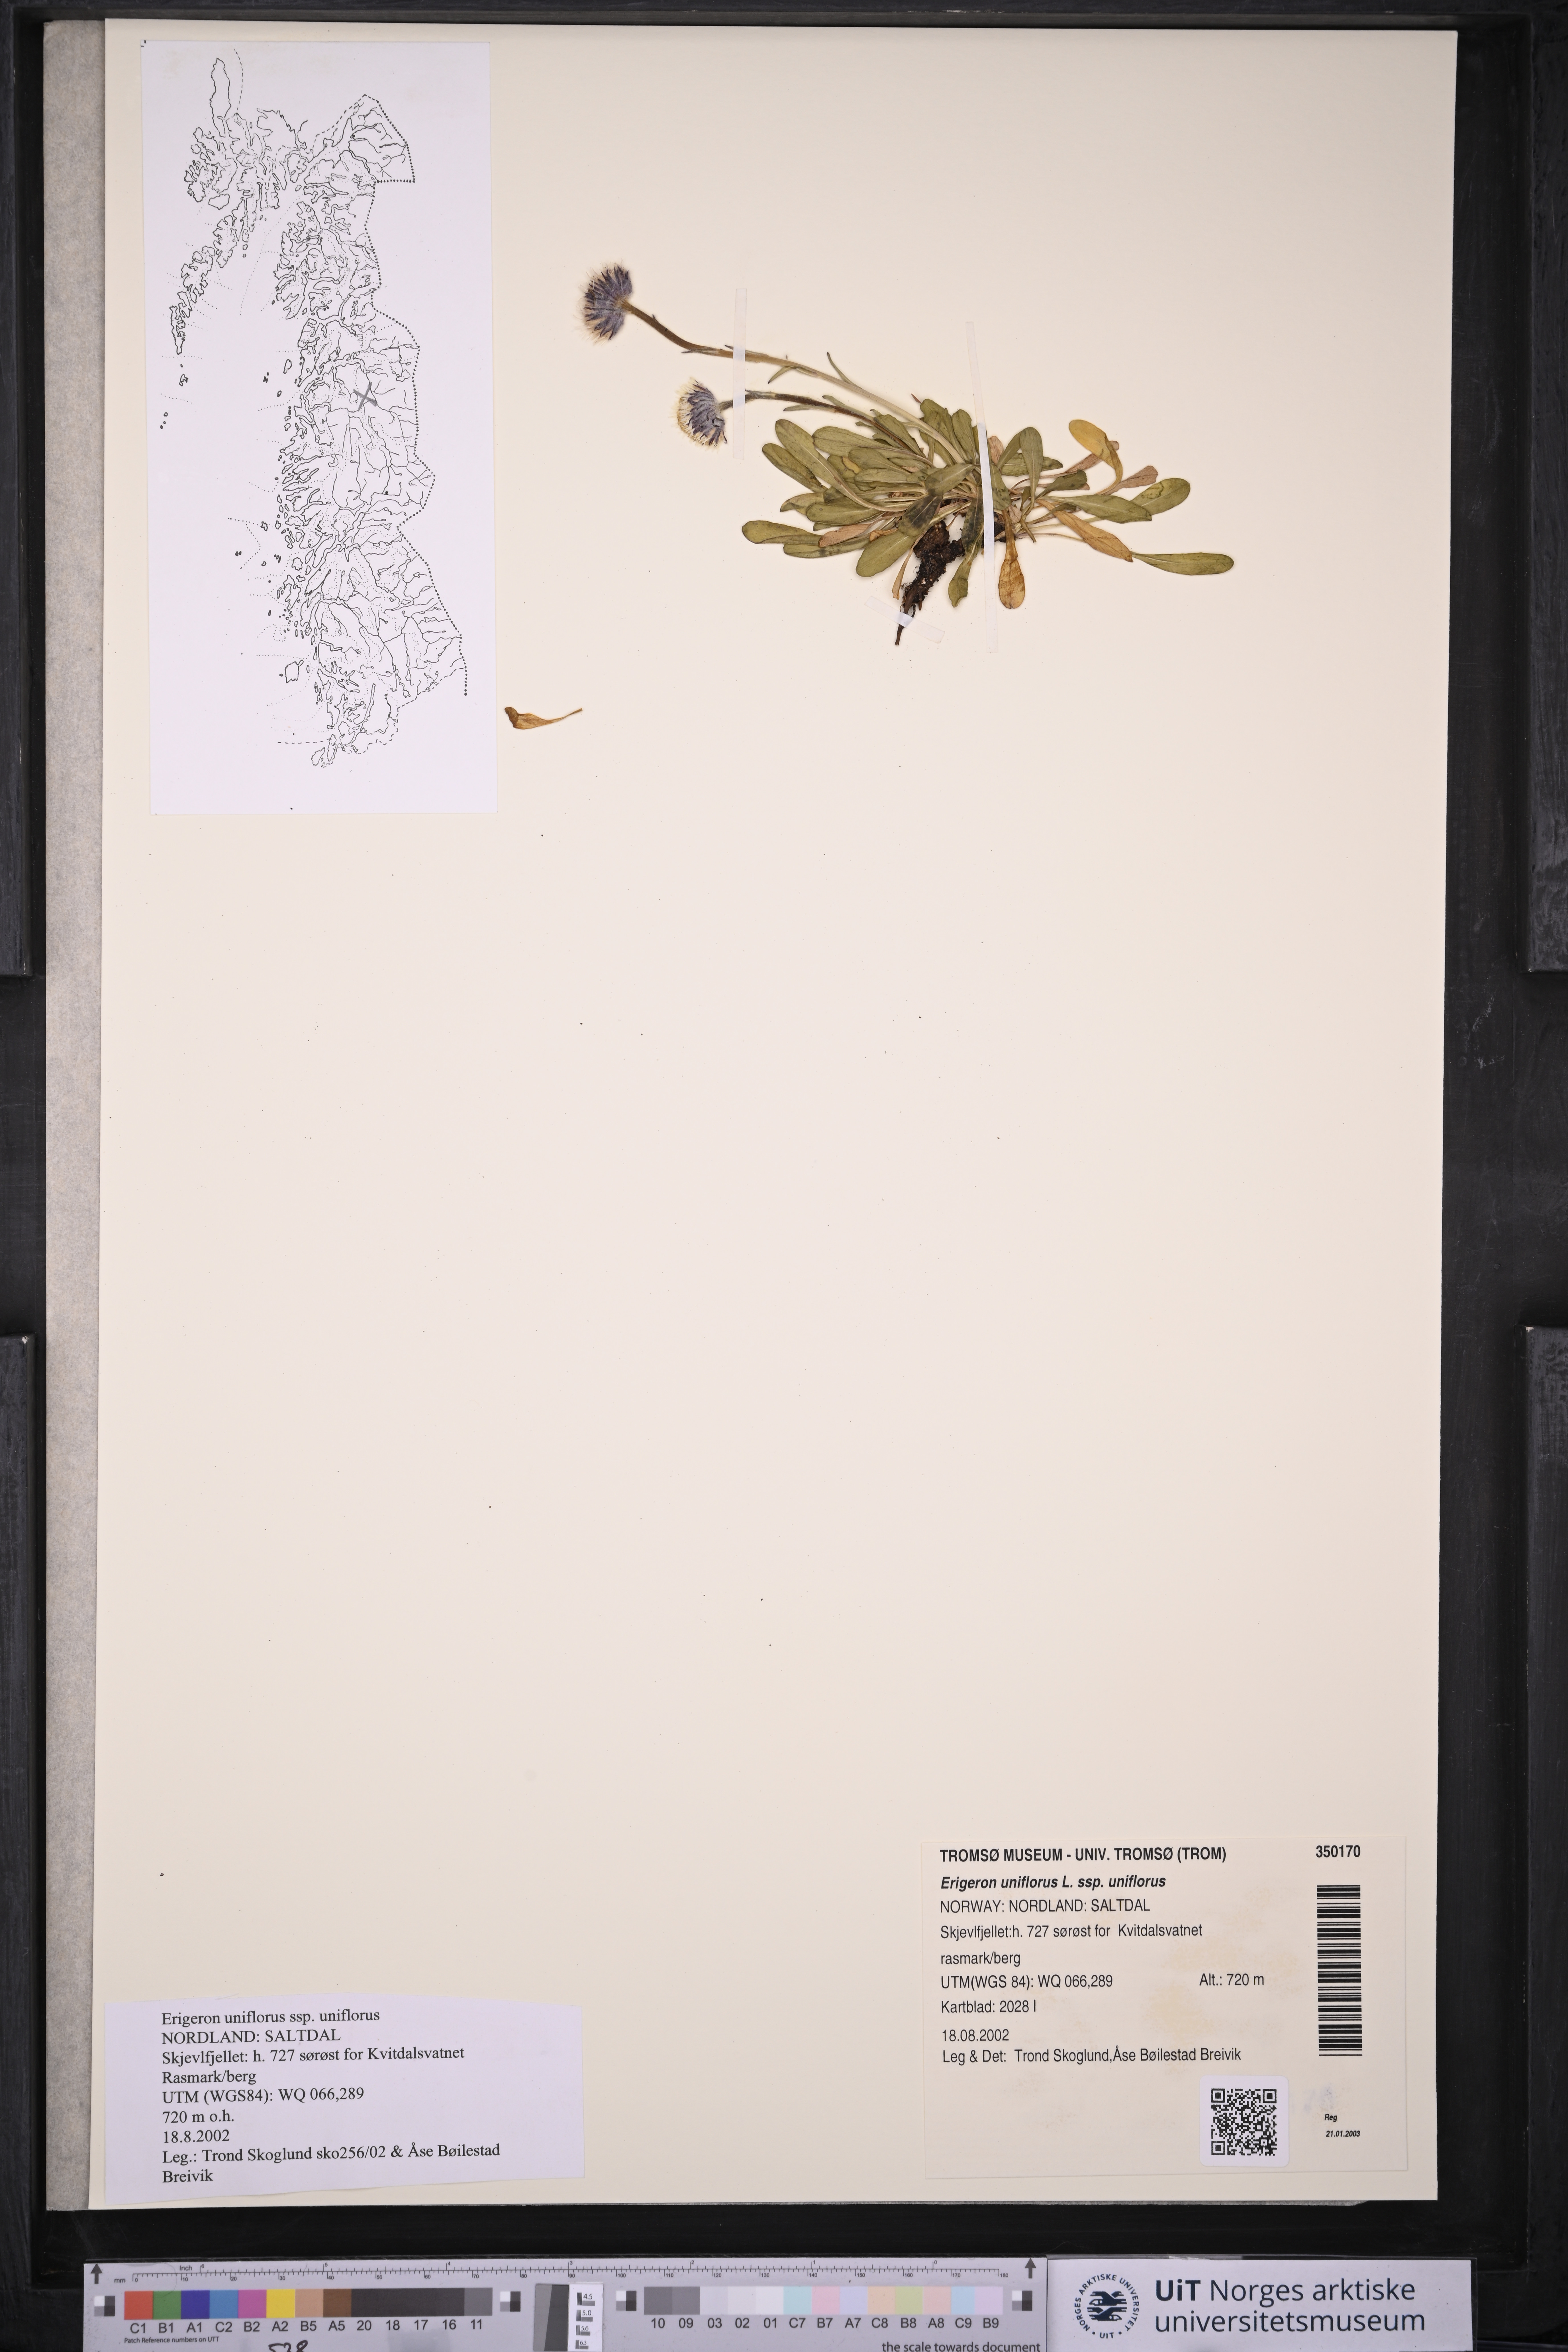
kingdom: Plantae
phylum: Tracheophyta
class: Magnoliopsida
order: Asterales
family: Asteraceae
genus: Erigeron
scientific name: Erigeron uniflorus
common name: Northern daisy
